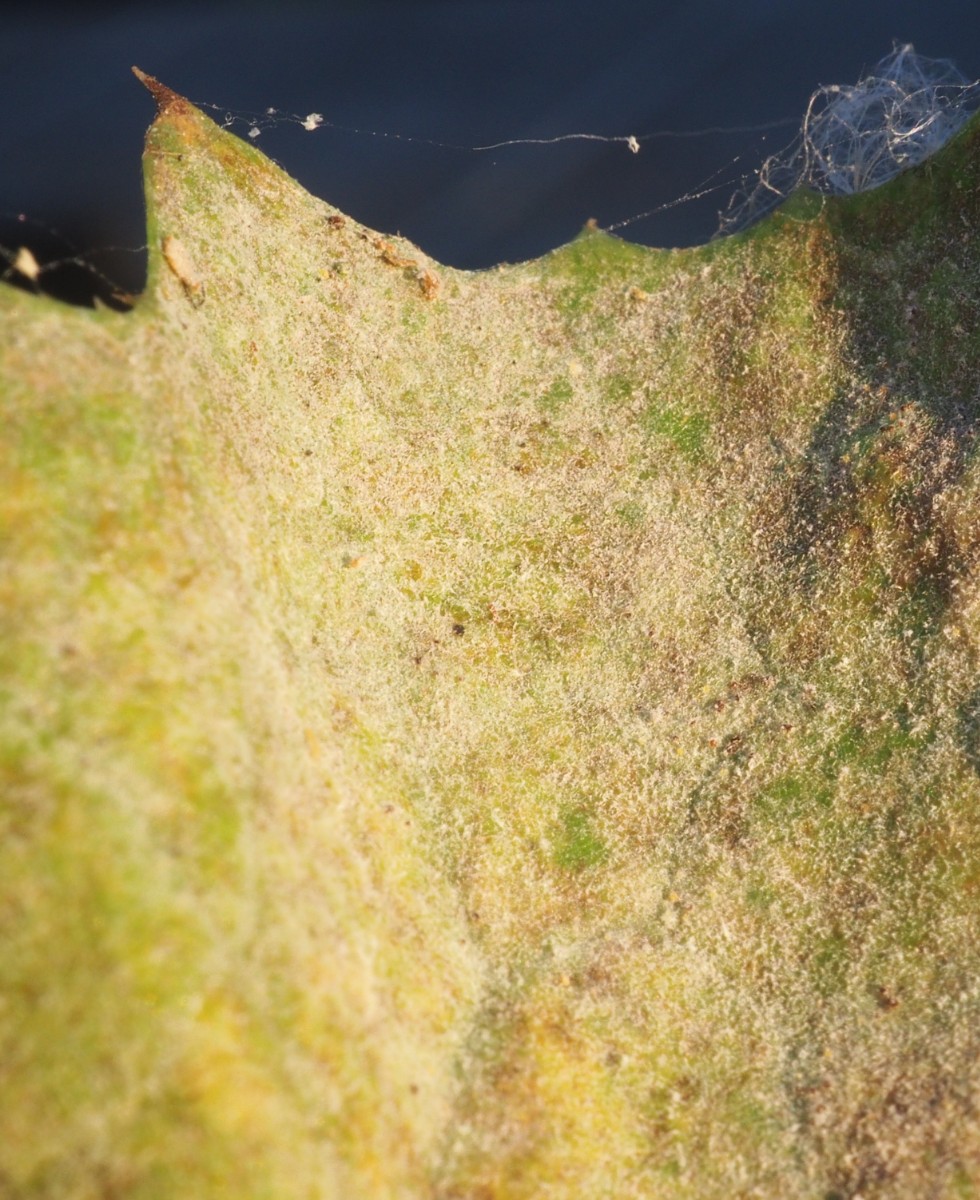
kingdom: Fungi
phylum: Ascomycota
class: Leotiomycetes
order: Helotiales
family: Erysiphaceae
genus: Golovinomyces
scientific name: Golovinomyces sonchicola
